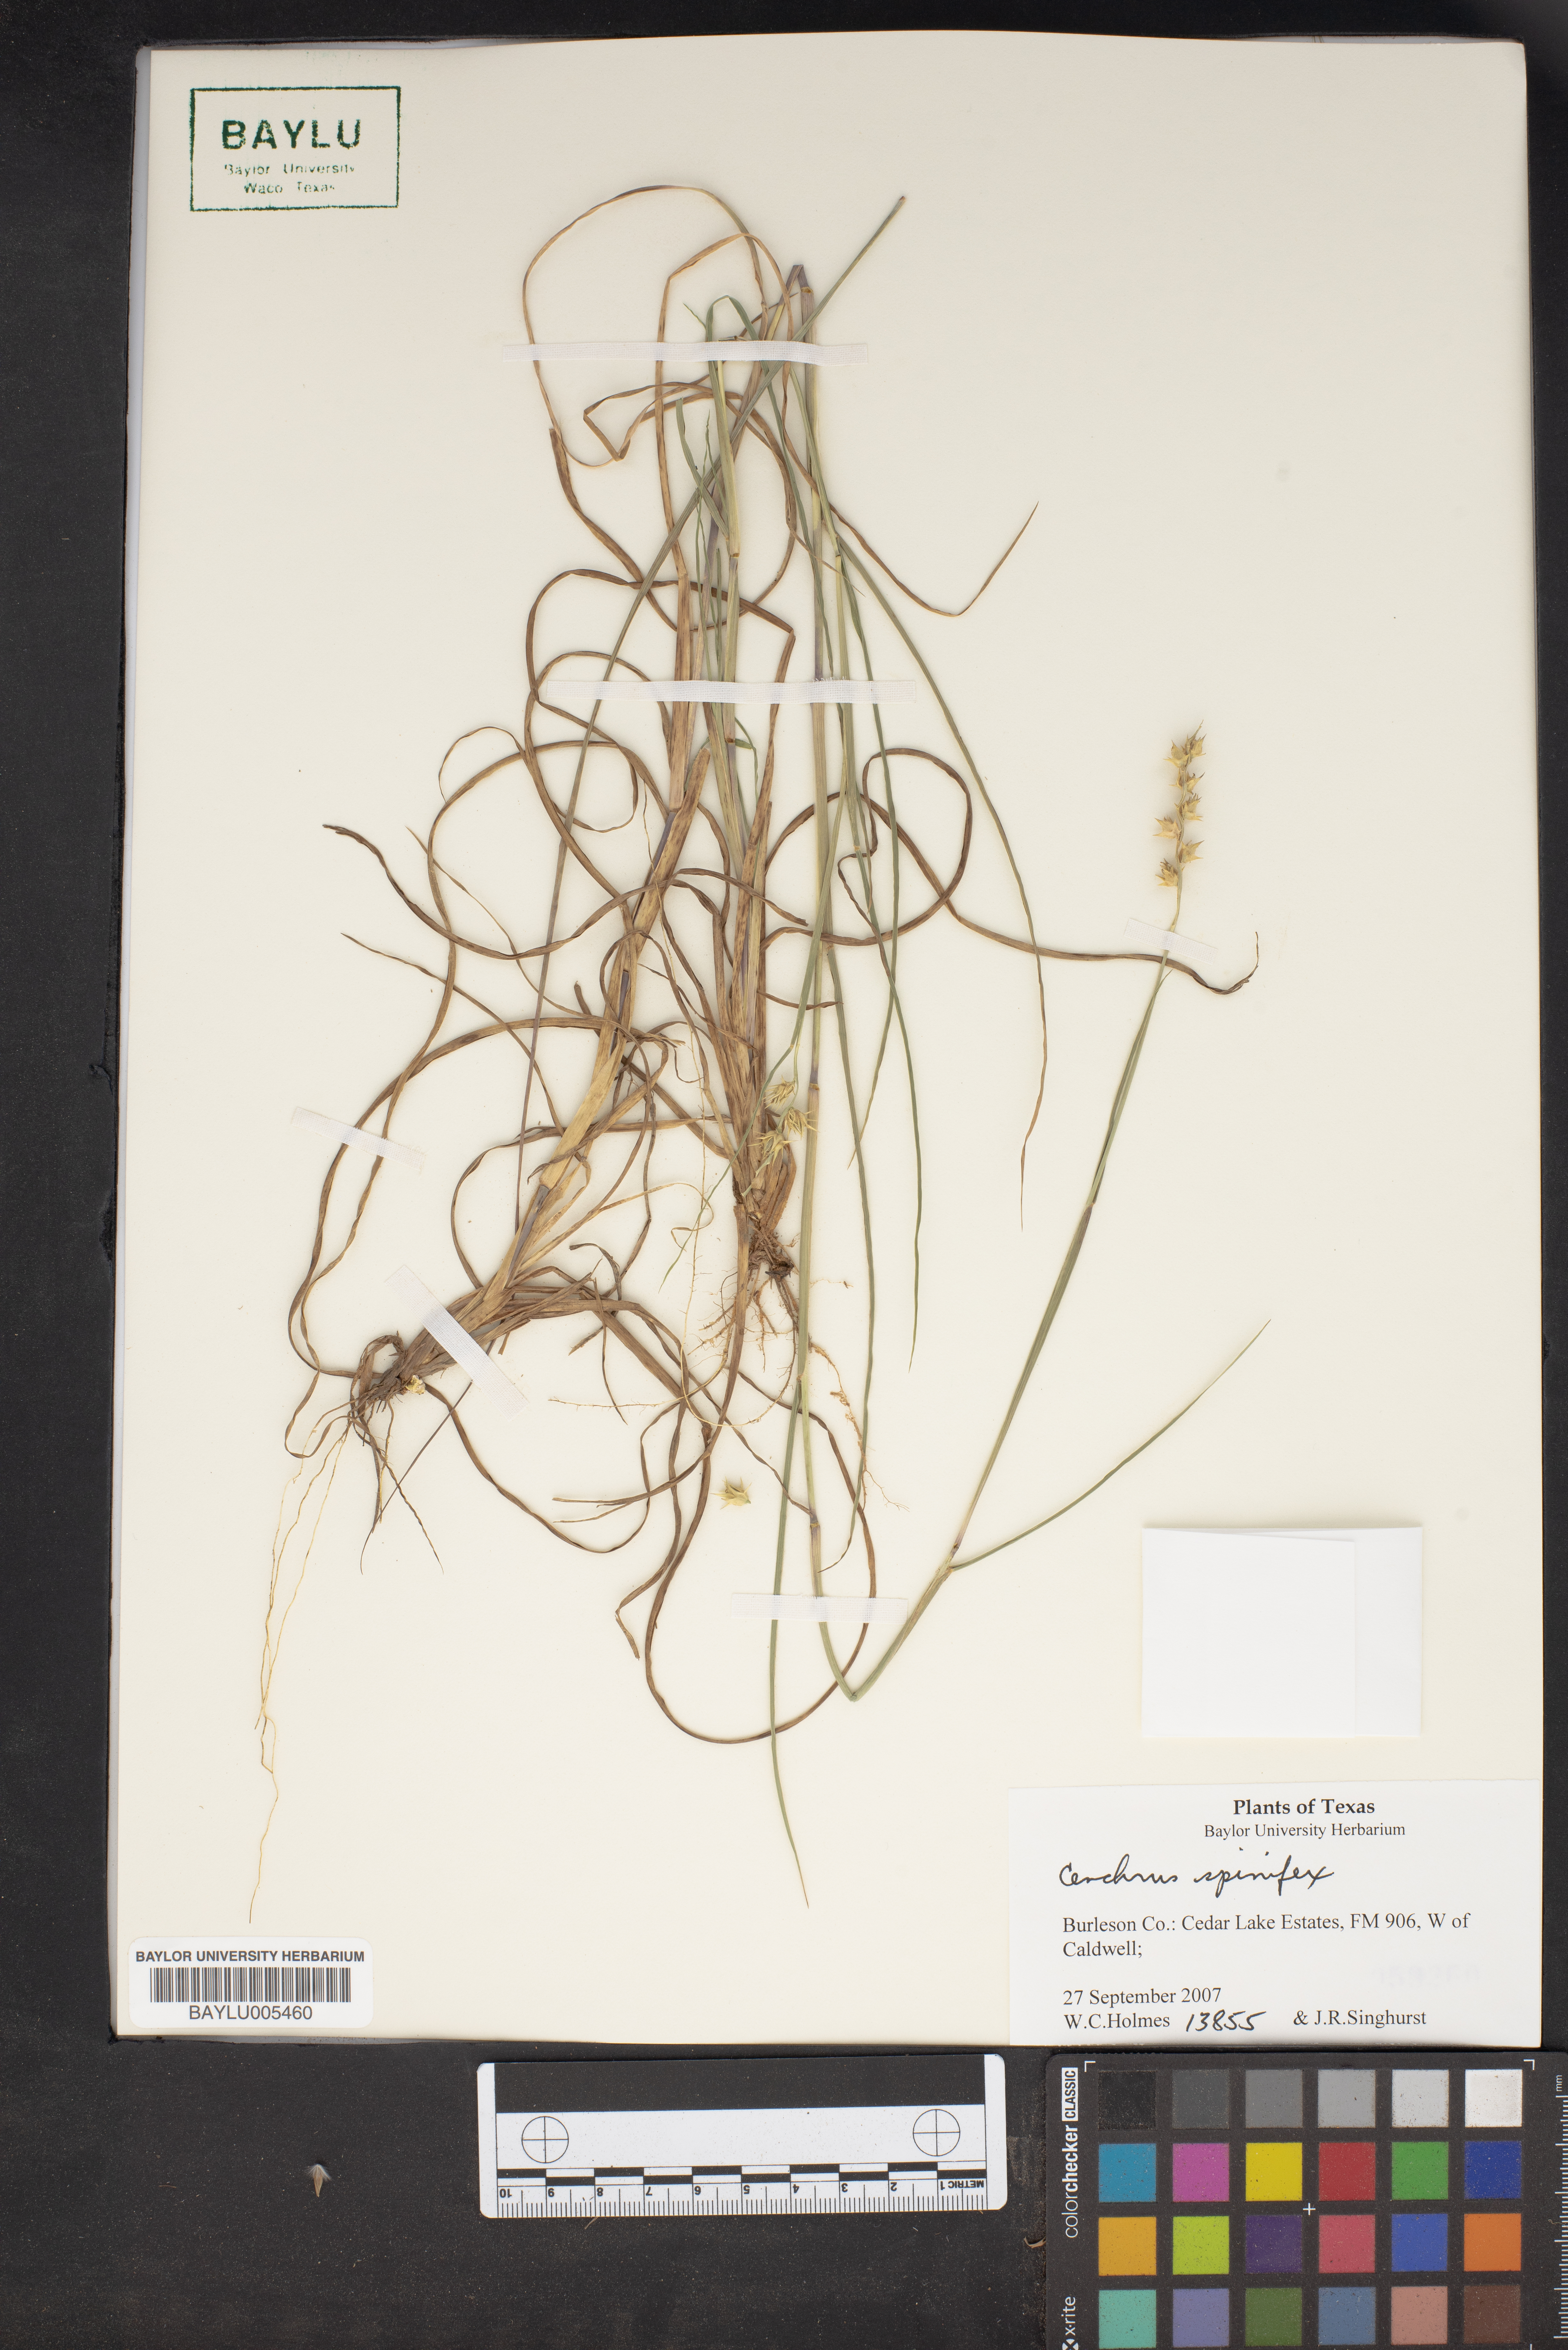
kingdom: Plantae
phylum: Tracheophyta
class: Liliopsida
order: Poales
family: Poaceae
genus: Cenchrus
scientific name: Cenchrus spinifex
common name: Coast sandbur
